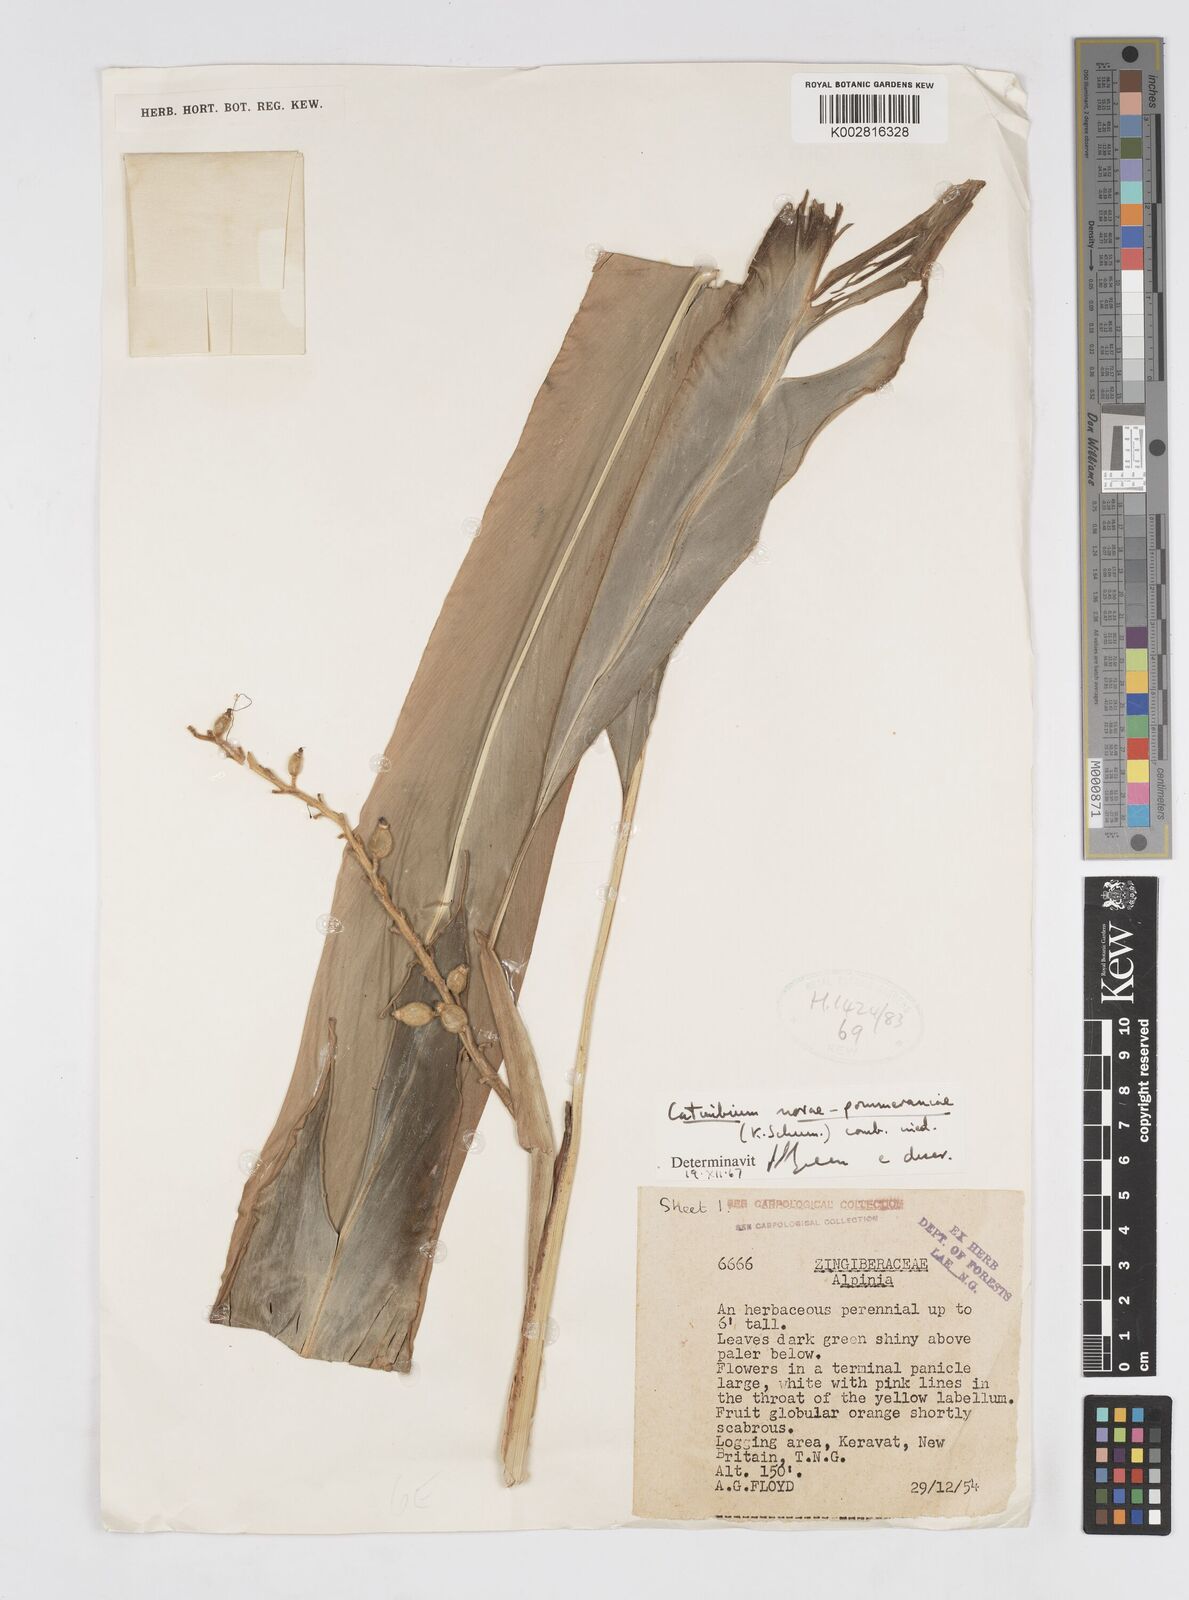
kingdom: Plantae
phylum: Tracheophyta
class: Liliopsida
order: Zingiberales
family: Zingiberaceae
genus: Alpinia
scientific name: Alpinia novae-pommeraniae
